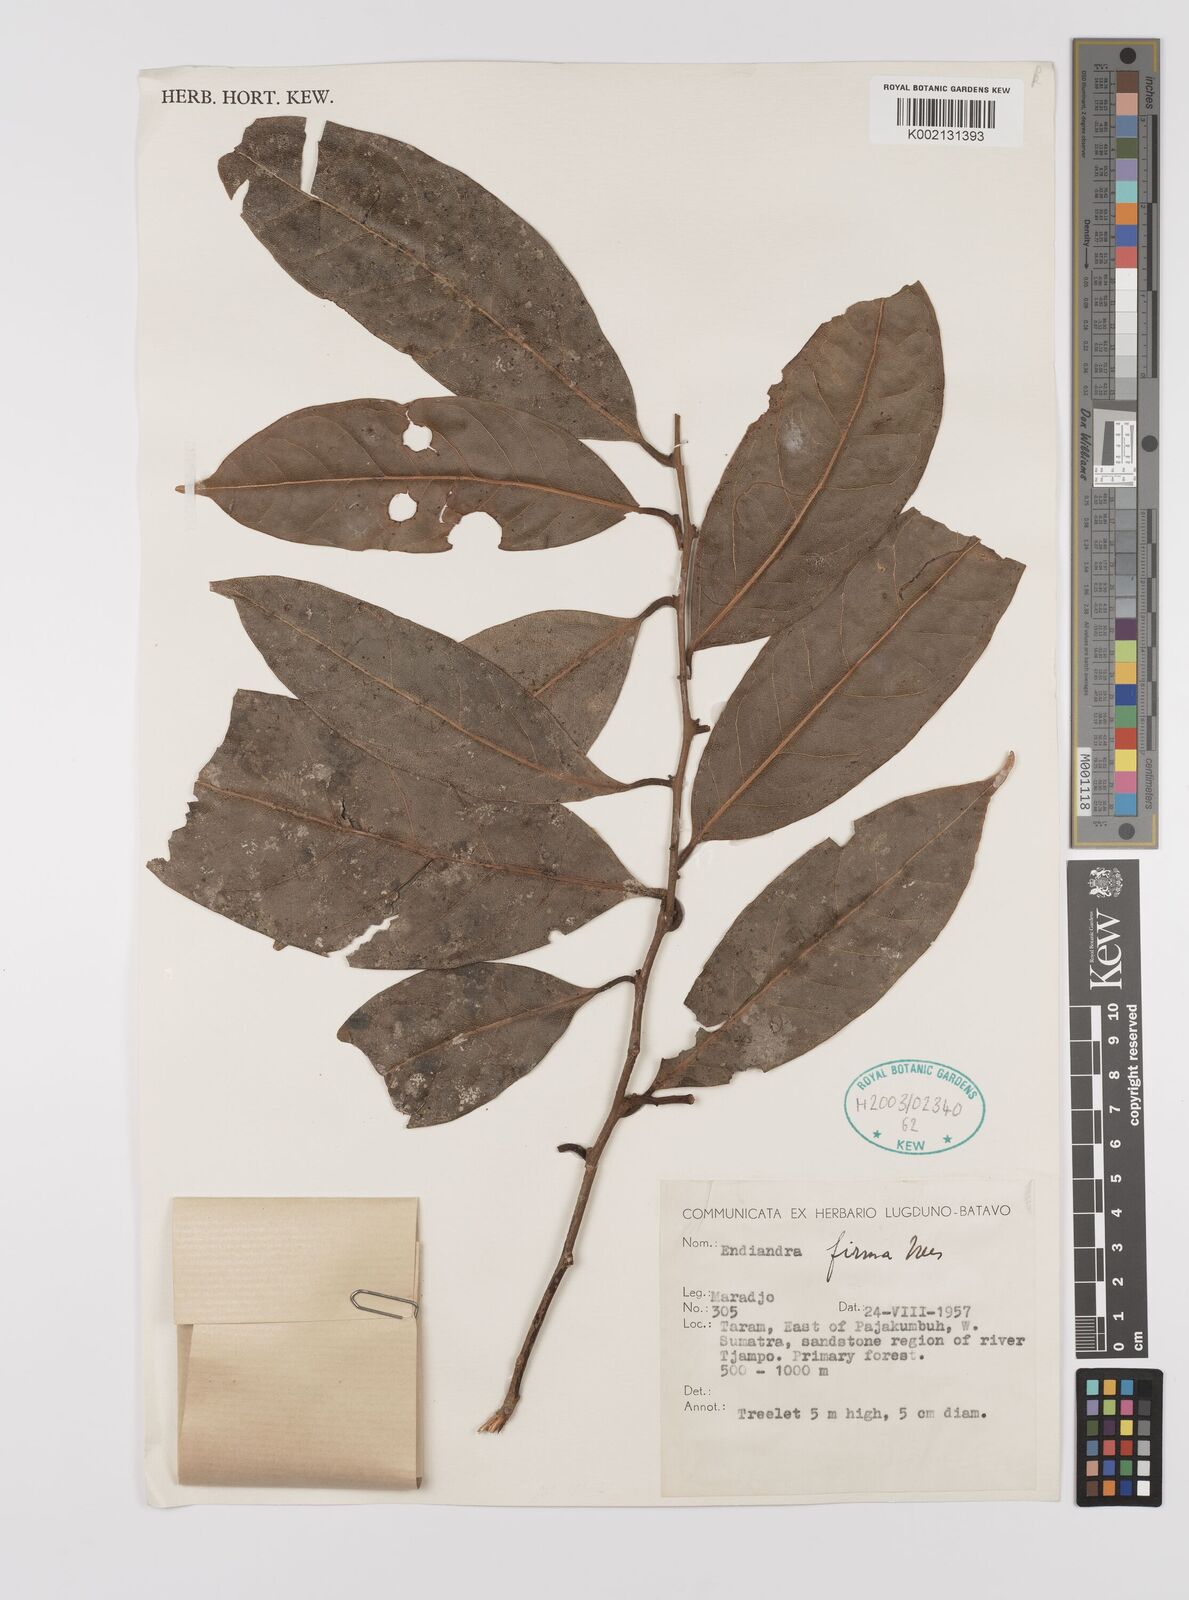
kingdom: Plantae
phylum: Tracheophyta
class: Magnoliopsida
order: Laurales
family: Lauraceae
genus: Endiandra
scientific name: Endiandra firma
